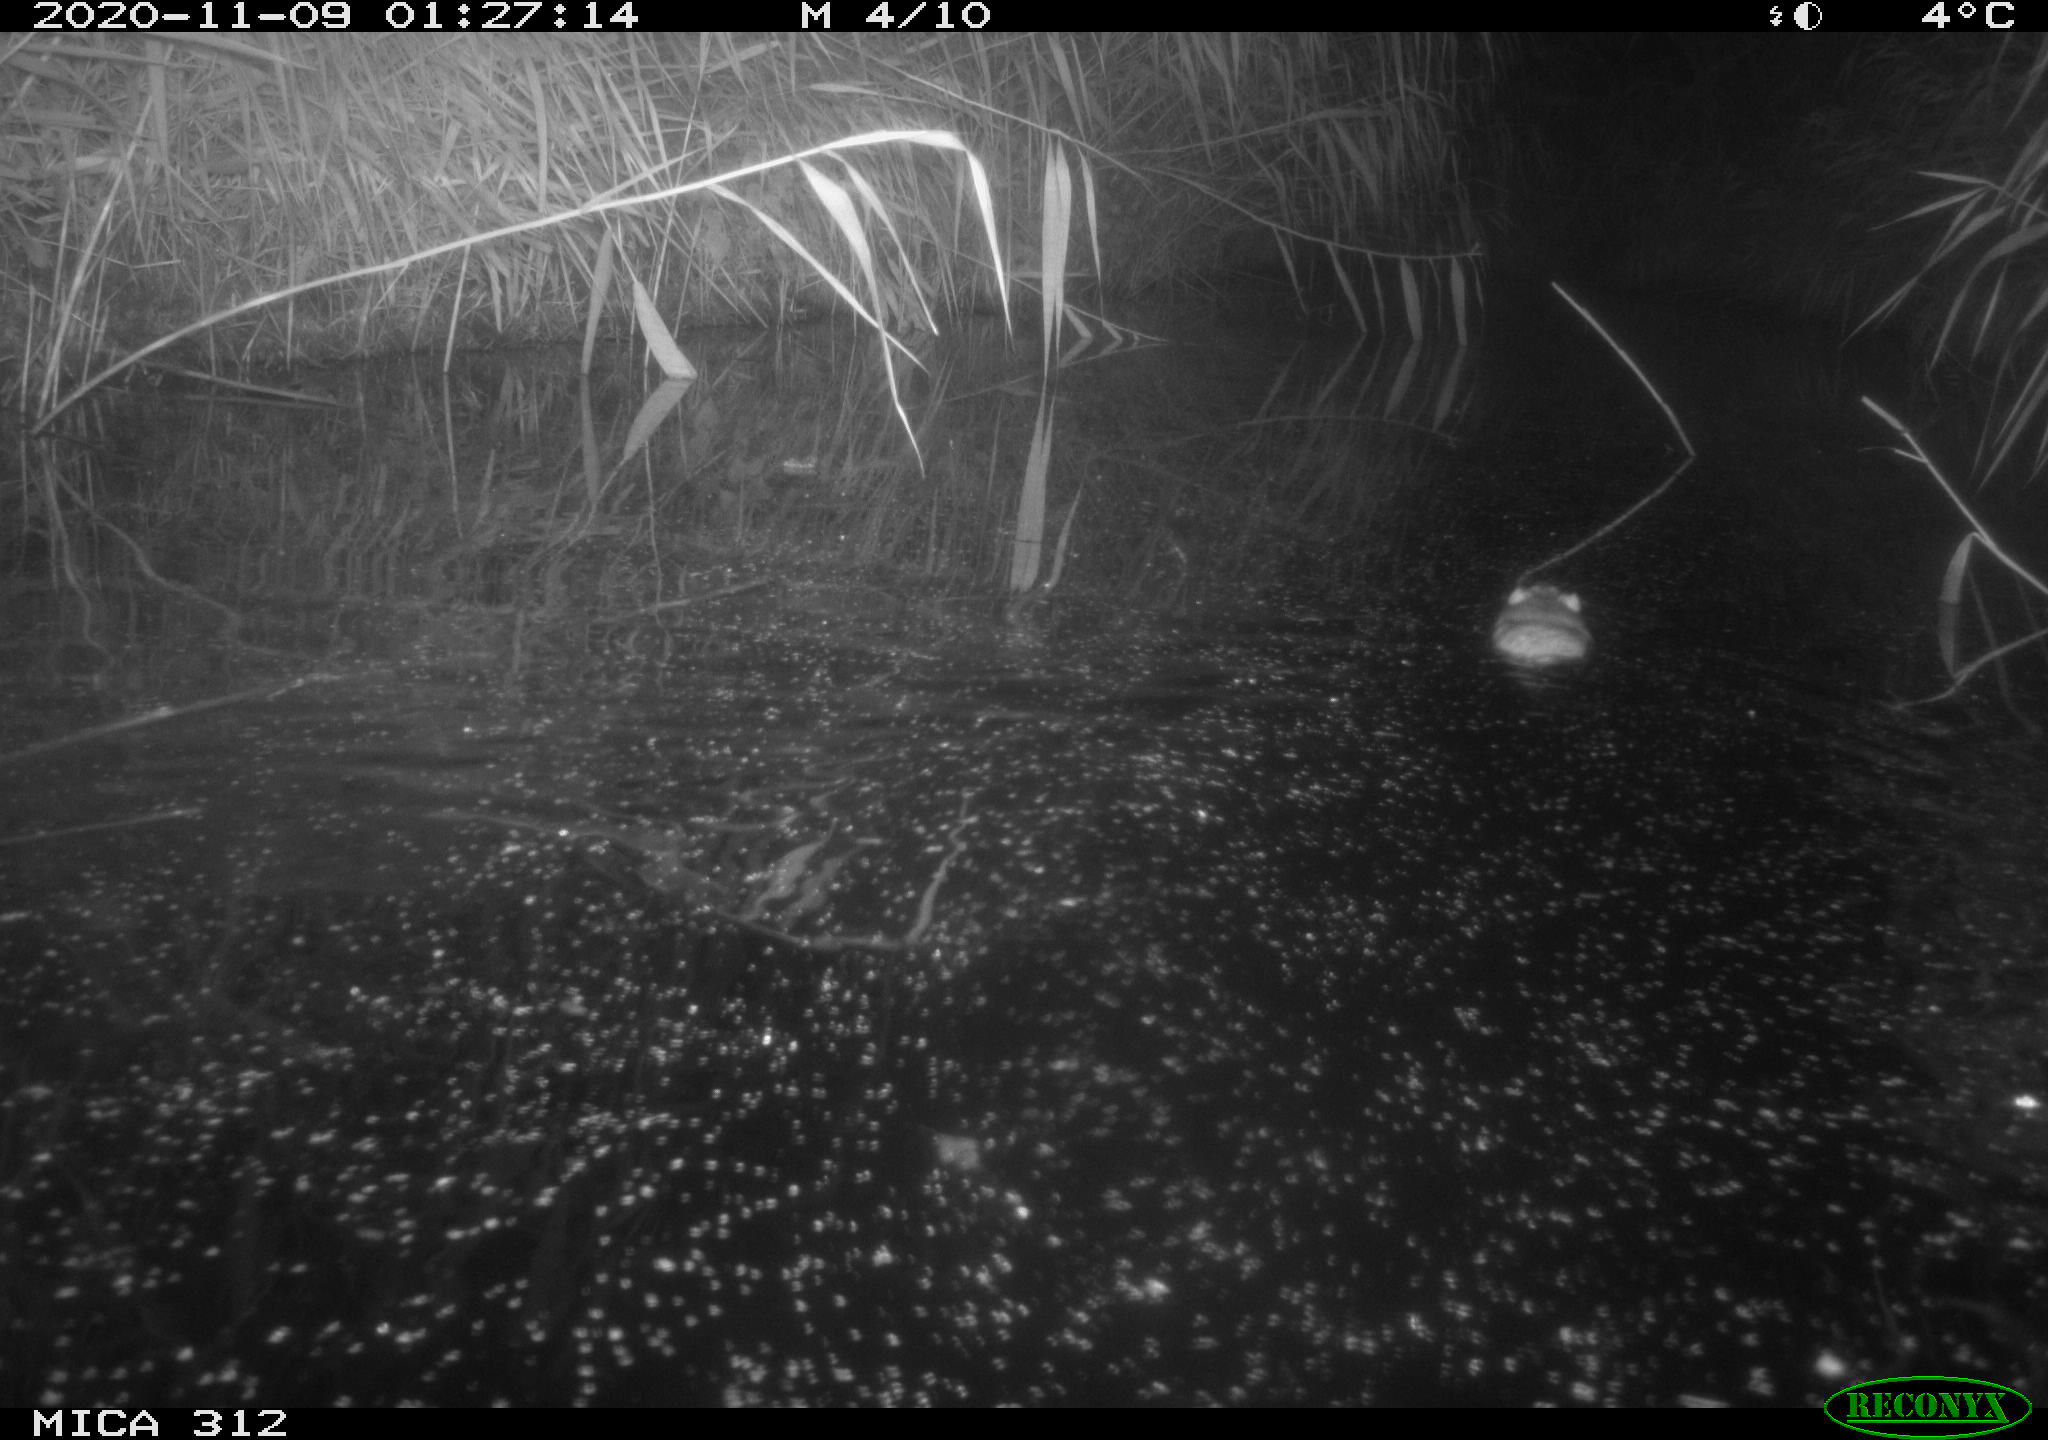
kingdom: Animalia
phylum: Chordata
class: Mammalia
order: Rodentia
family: Muridae
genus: Rattus
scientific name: Rattus norvegicus
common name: Brown rat
